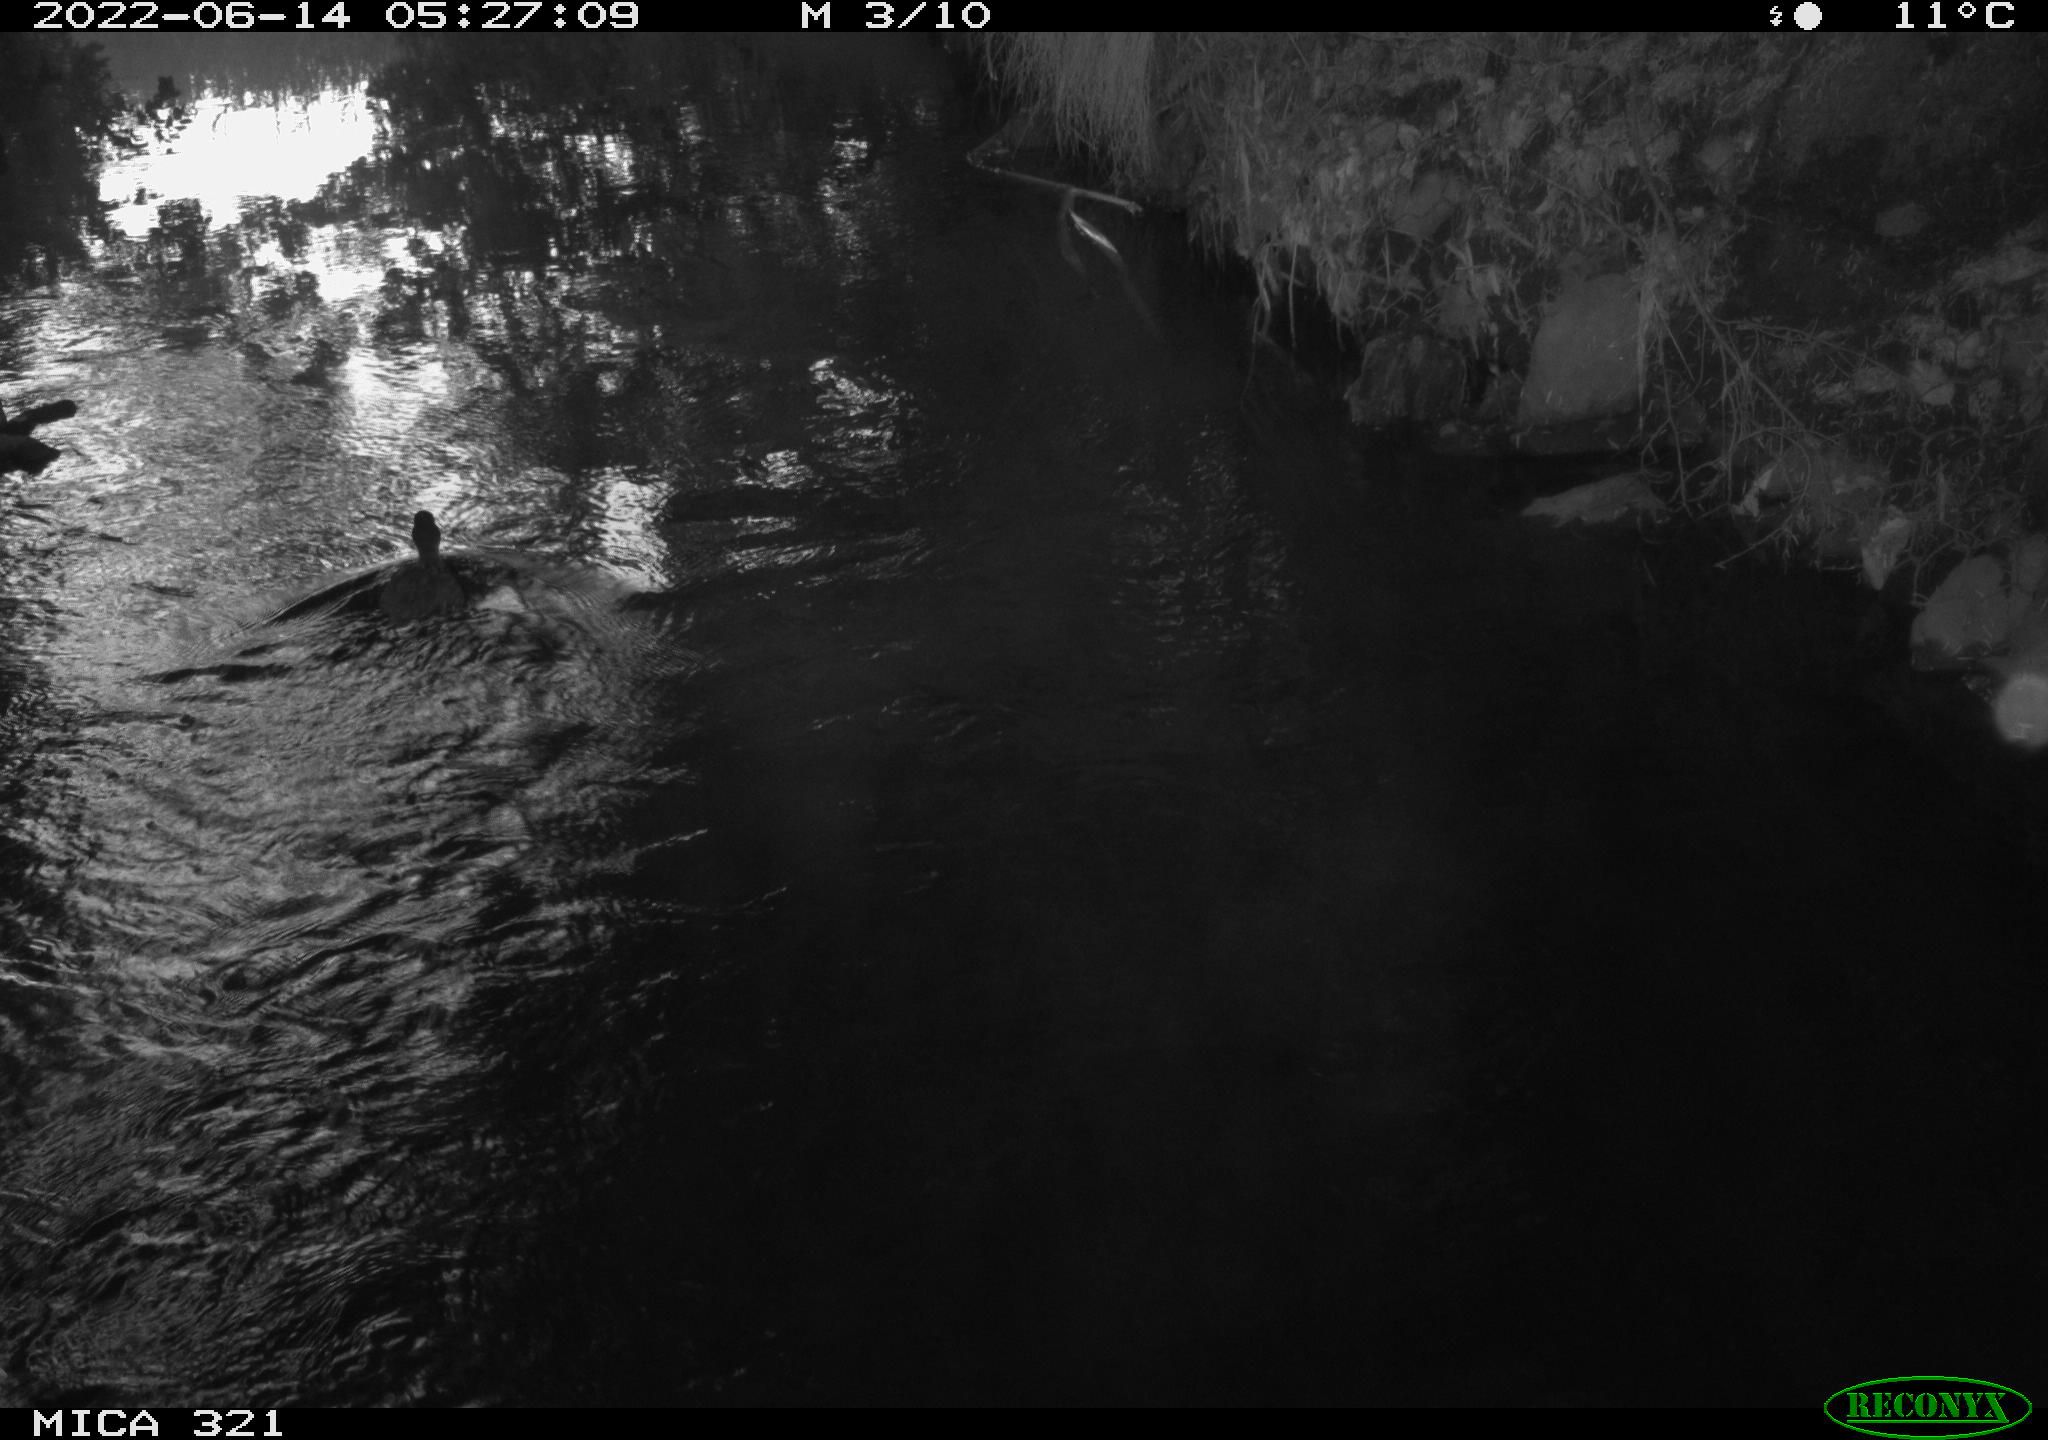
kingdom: Animalia
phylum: Chordata
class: Aves
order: Anseriformes
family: Anatidae
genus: Mareca
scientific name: Mareca strepera
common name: Gadwall
